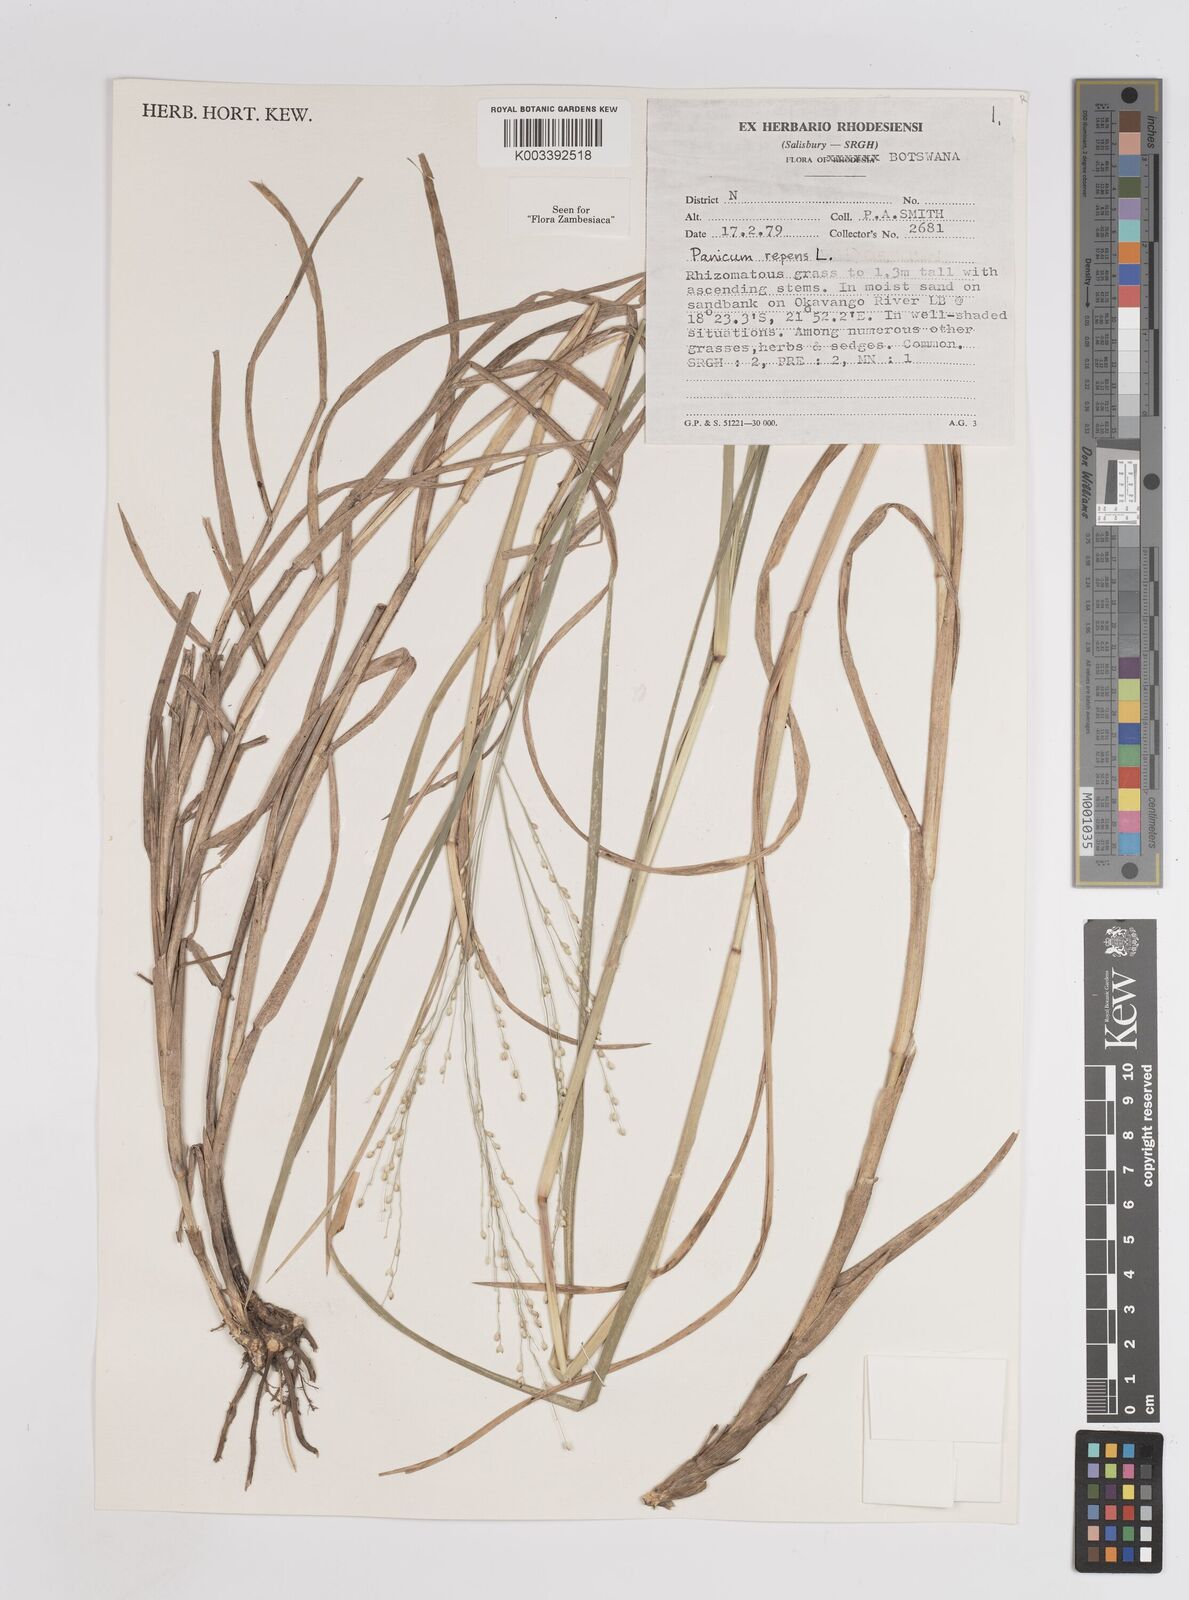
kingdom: Plantae
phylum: Tracheophyta
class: Liliopsida
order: Poales
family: Poaceae
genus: Panicum
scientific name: Panicum repens
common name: Torpedo grass
